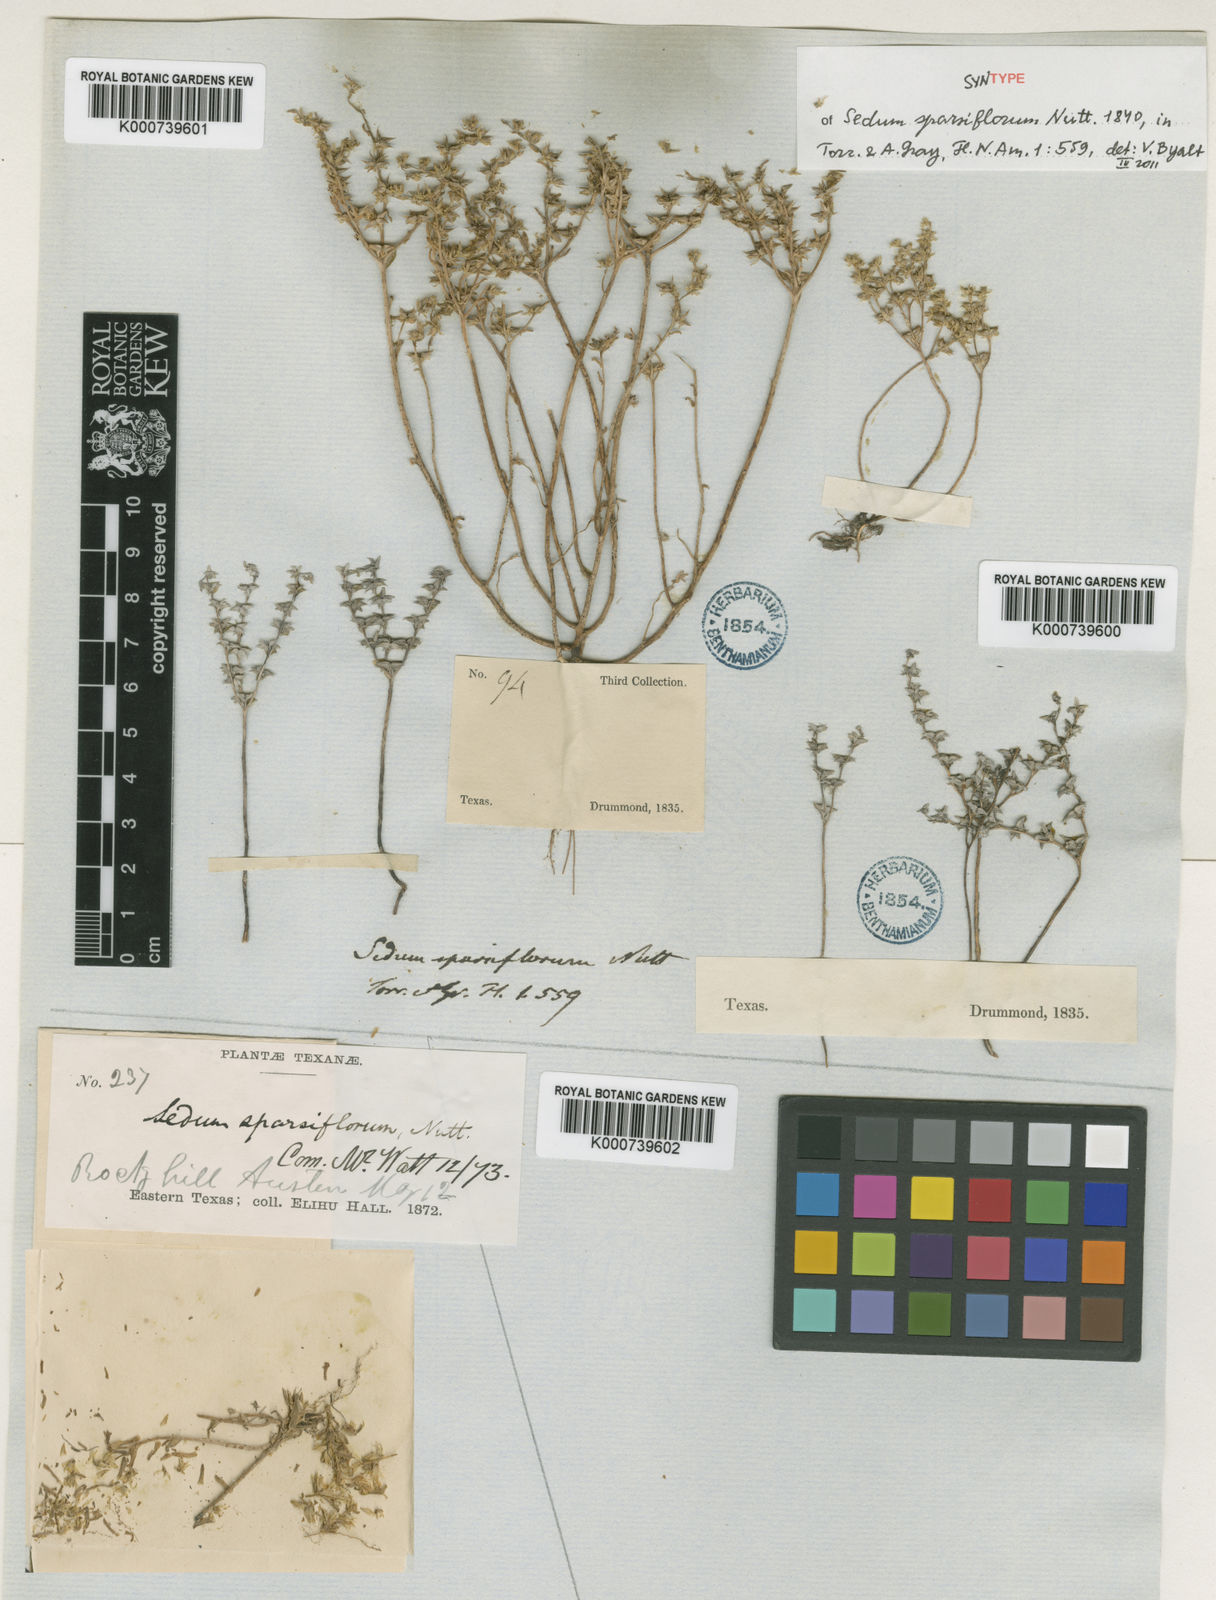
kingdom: Plantae
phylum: Tracheophyta
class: Magnoliopsida
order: Saxifragales
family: Crassulaceae
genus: Sedum
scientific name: Sedum
